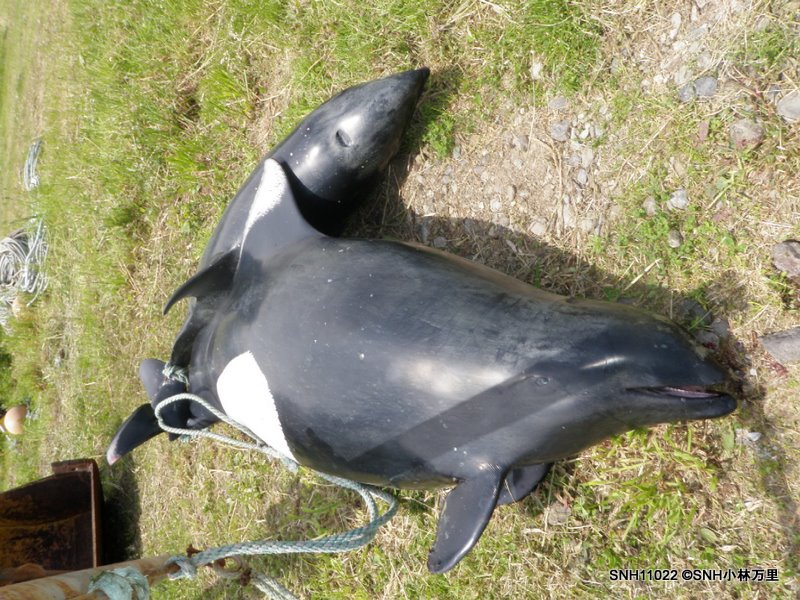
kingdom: Animalia
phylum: Chordata
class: Mammalia
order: Cetacea
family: Phocoenidae
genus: Phocoenoides
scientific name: Phocoenoides dalli
